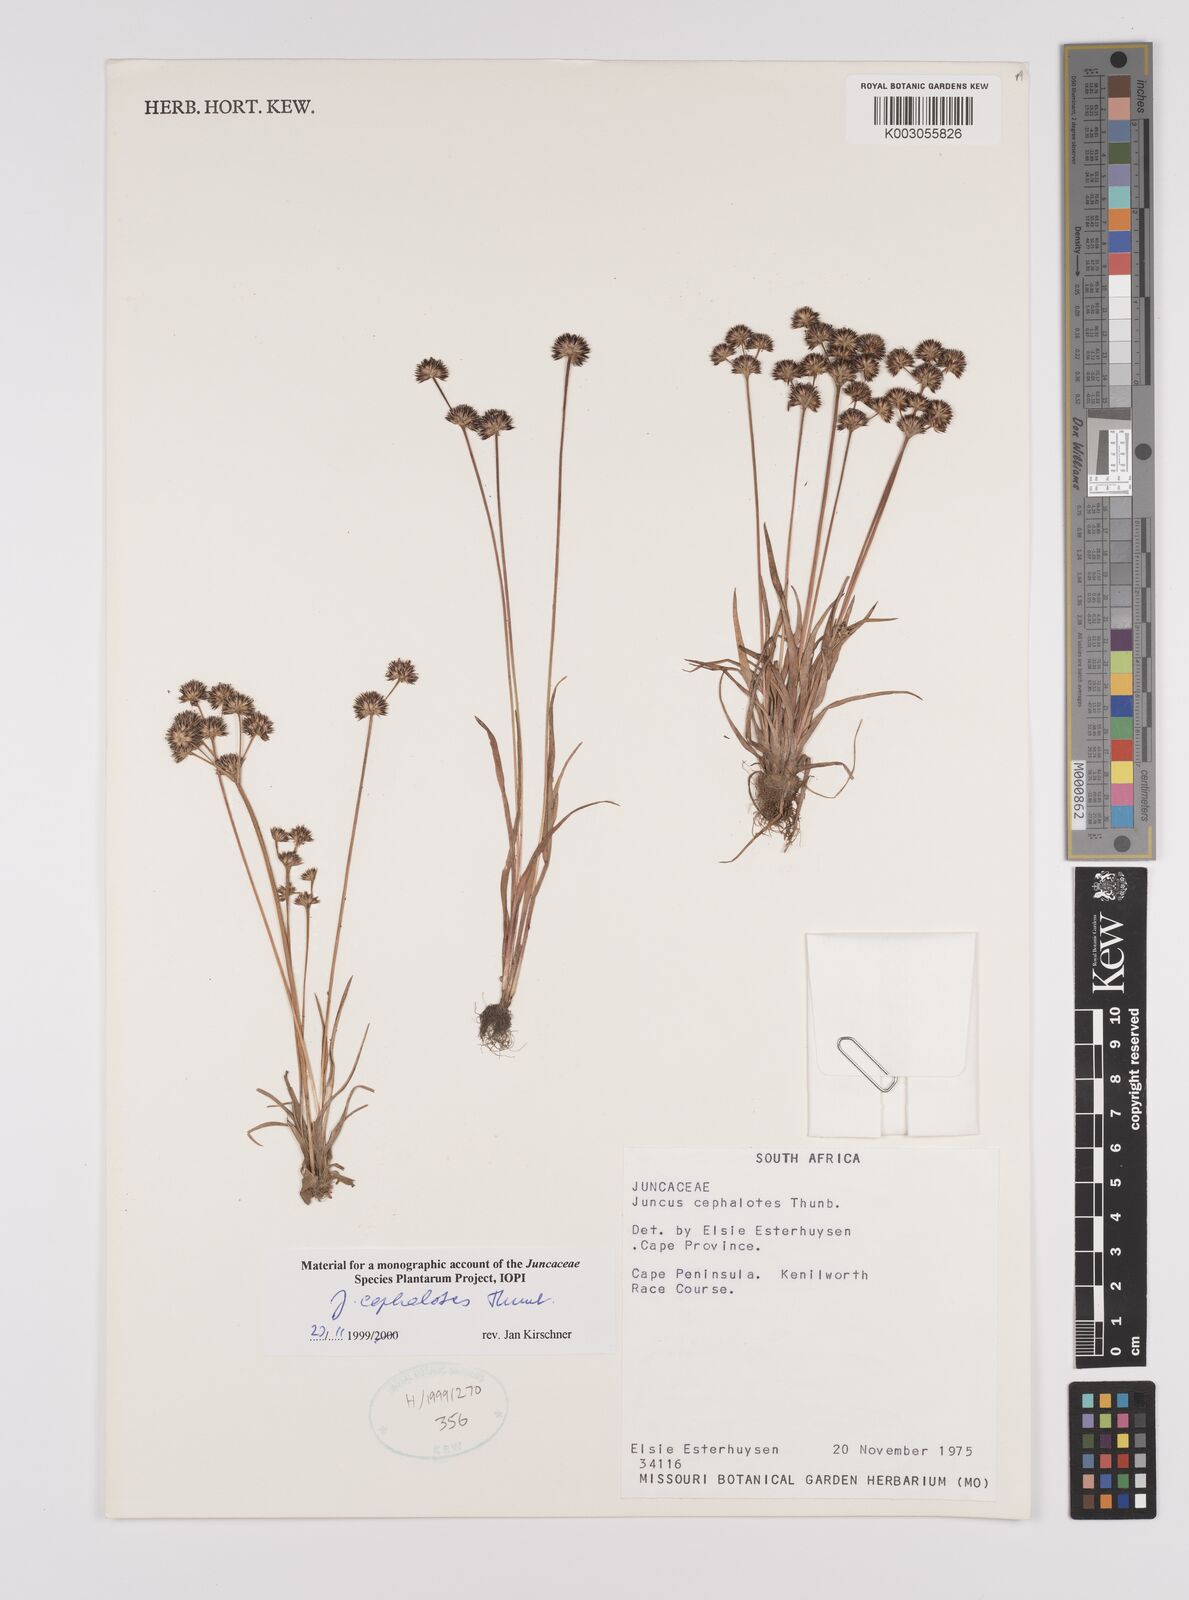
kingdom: Plantae
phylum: Tracheophyta
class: Liliopsida
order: Poales
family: Juncaceae
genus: Juncus
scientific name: Juncus cephalotes
